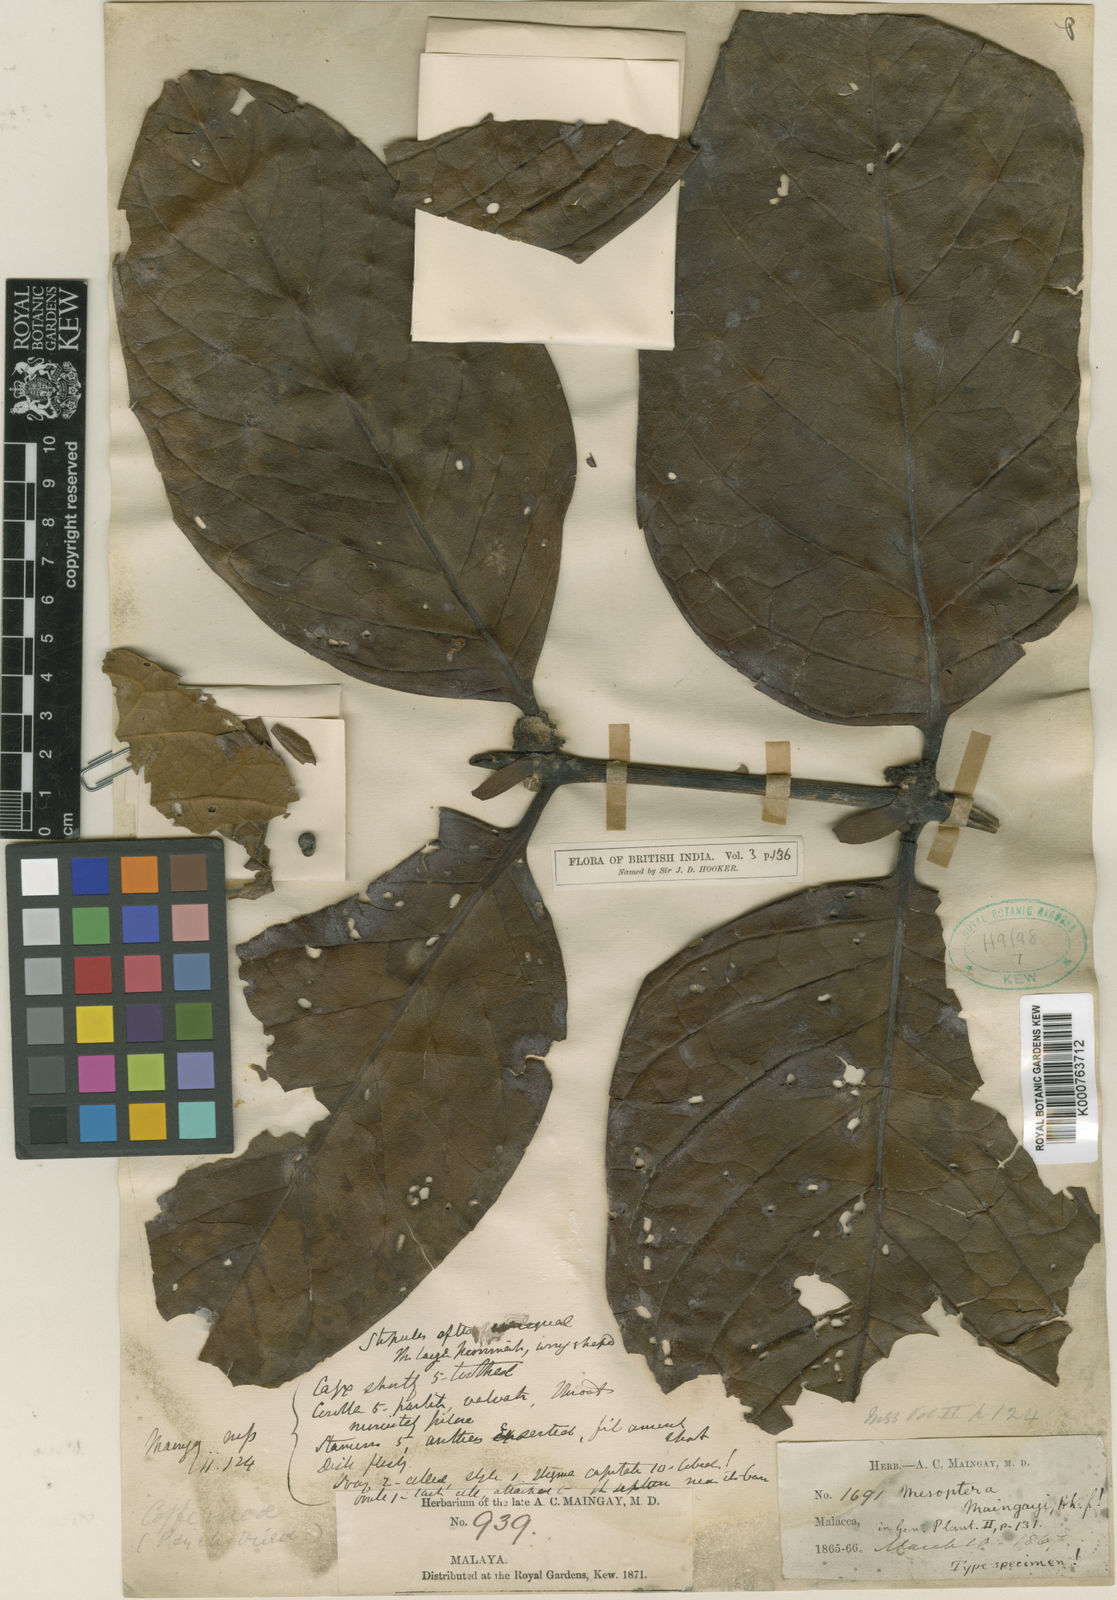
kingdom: Plantae
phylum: Tracheophyta
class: Magnoliopsida
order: Gentianales
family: Rubiaceae
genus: Psydrax
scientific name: Psydrax maingayi
